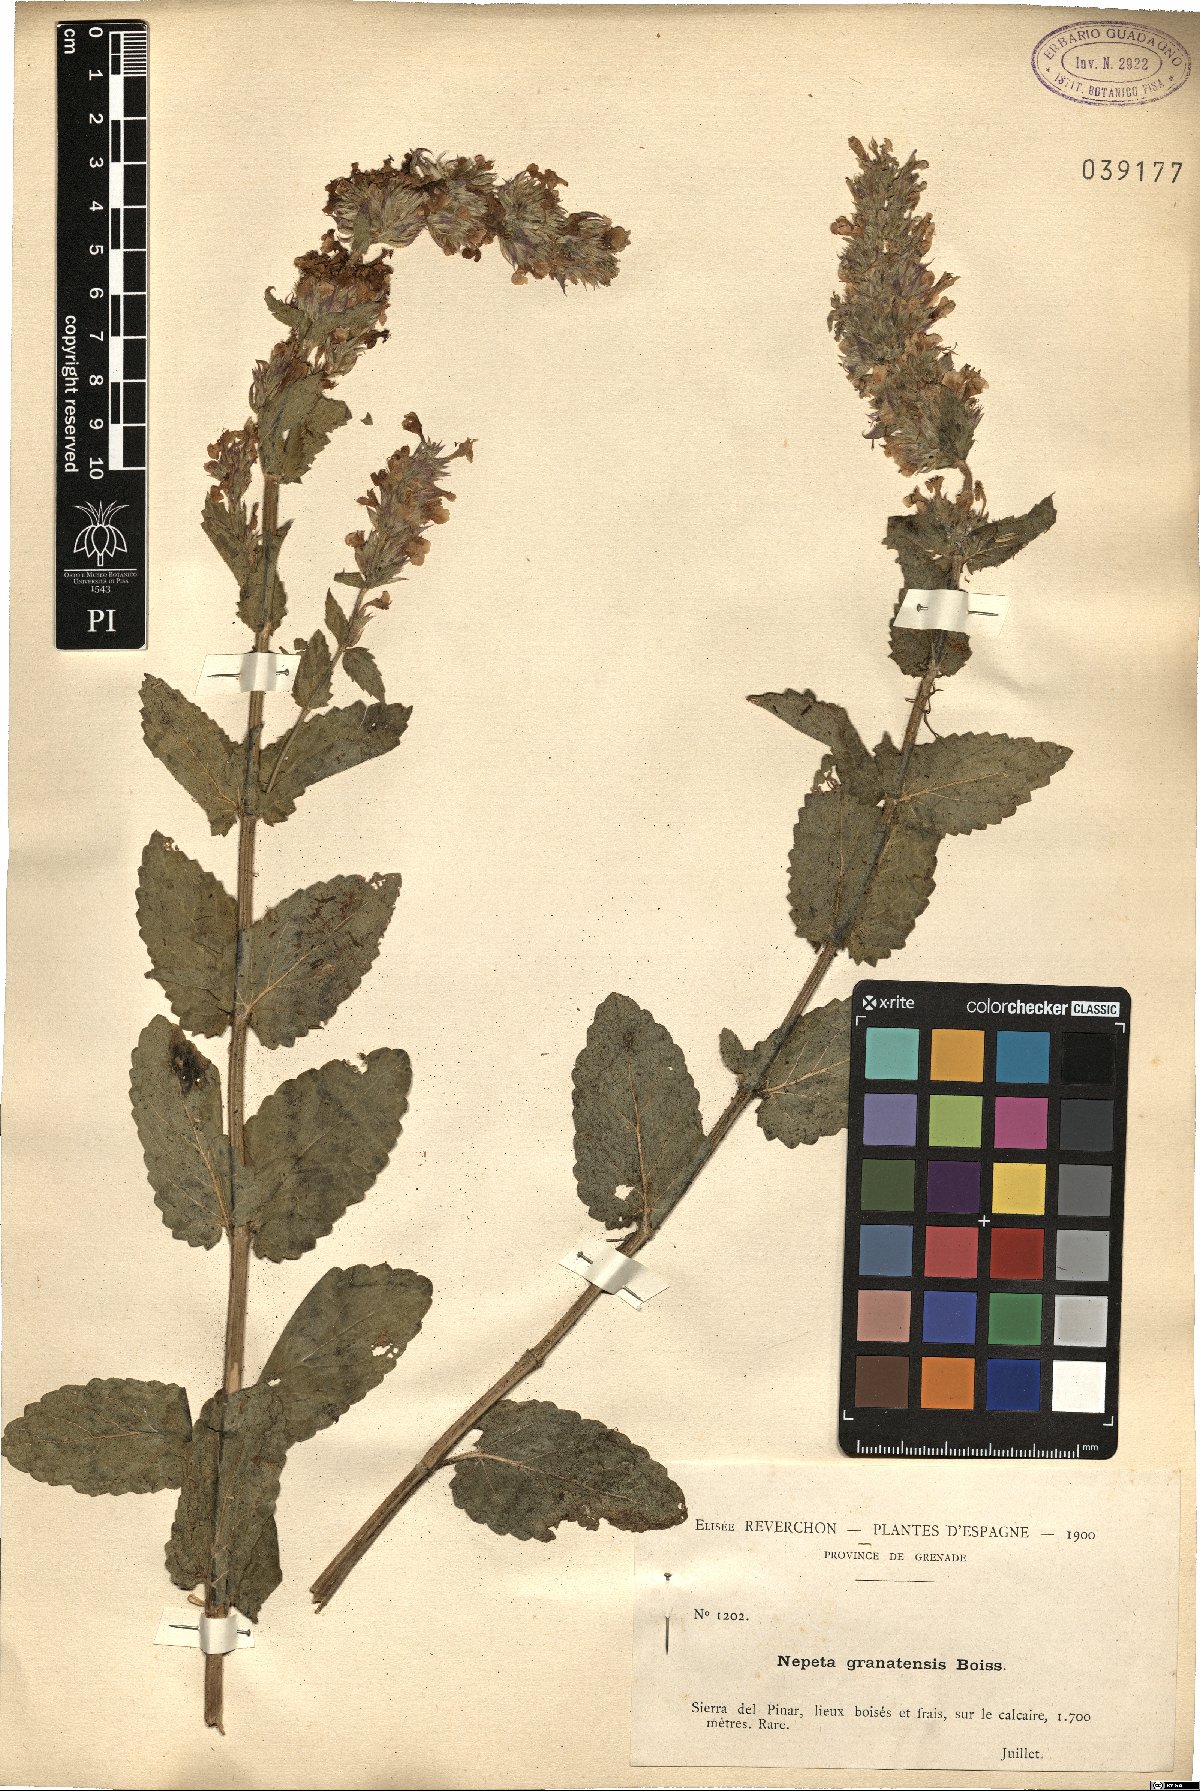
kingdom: Plantae
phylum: Tracheophyta
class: Magnoliopsida
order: Lamiales
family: Lamiaceae
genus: Nepeta
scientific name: Nepeta granatensis
